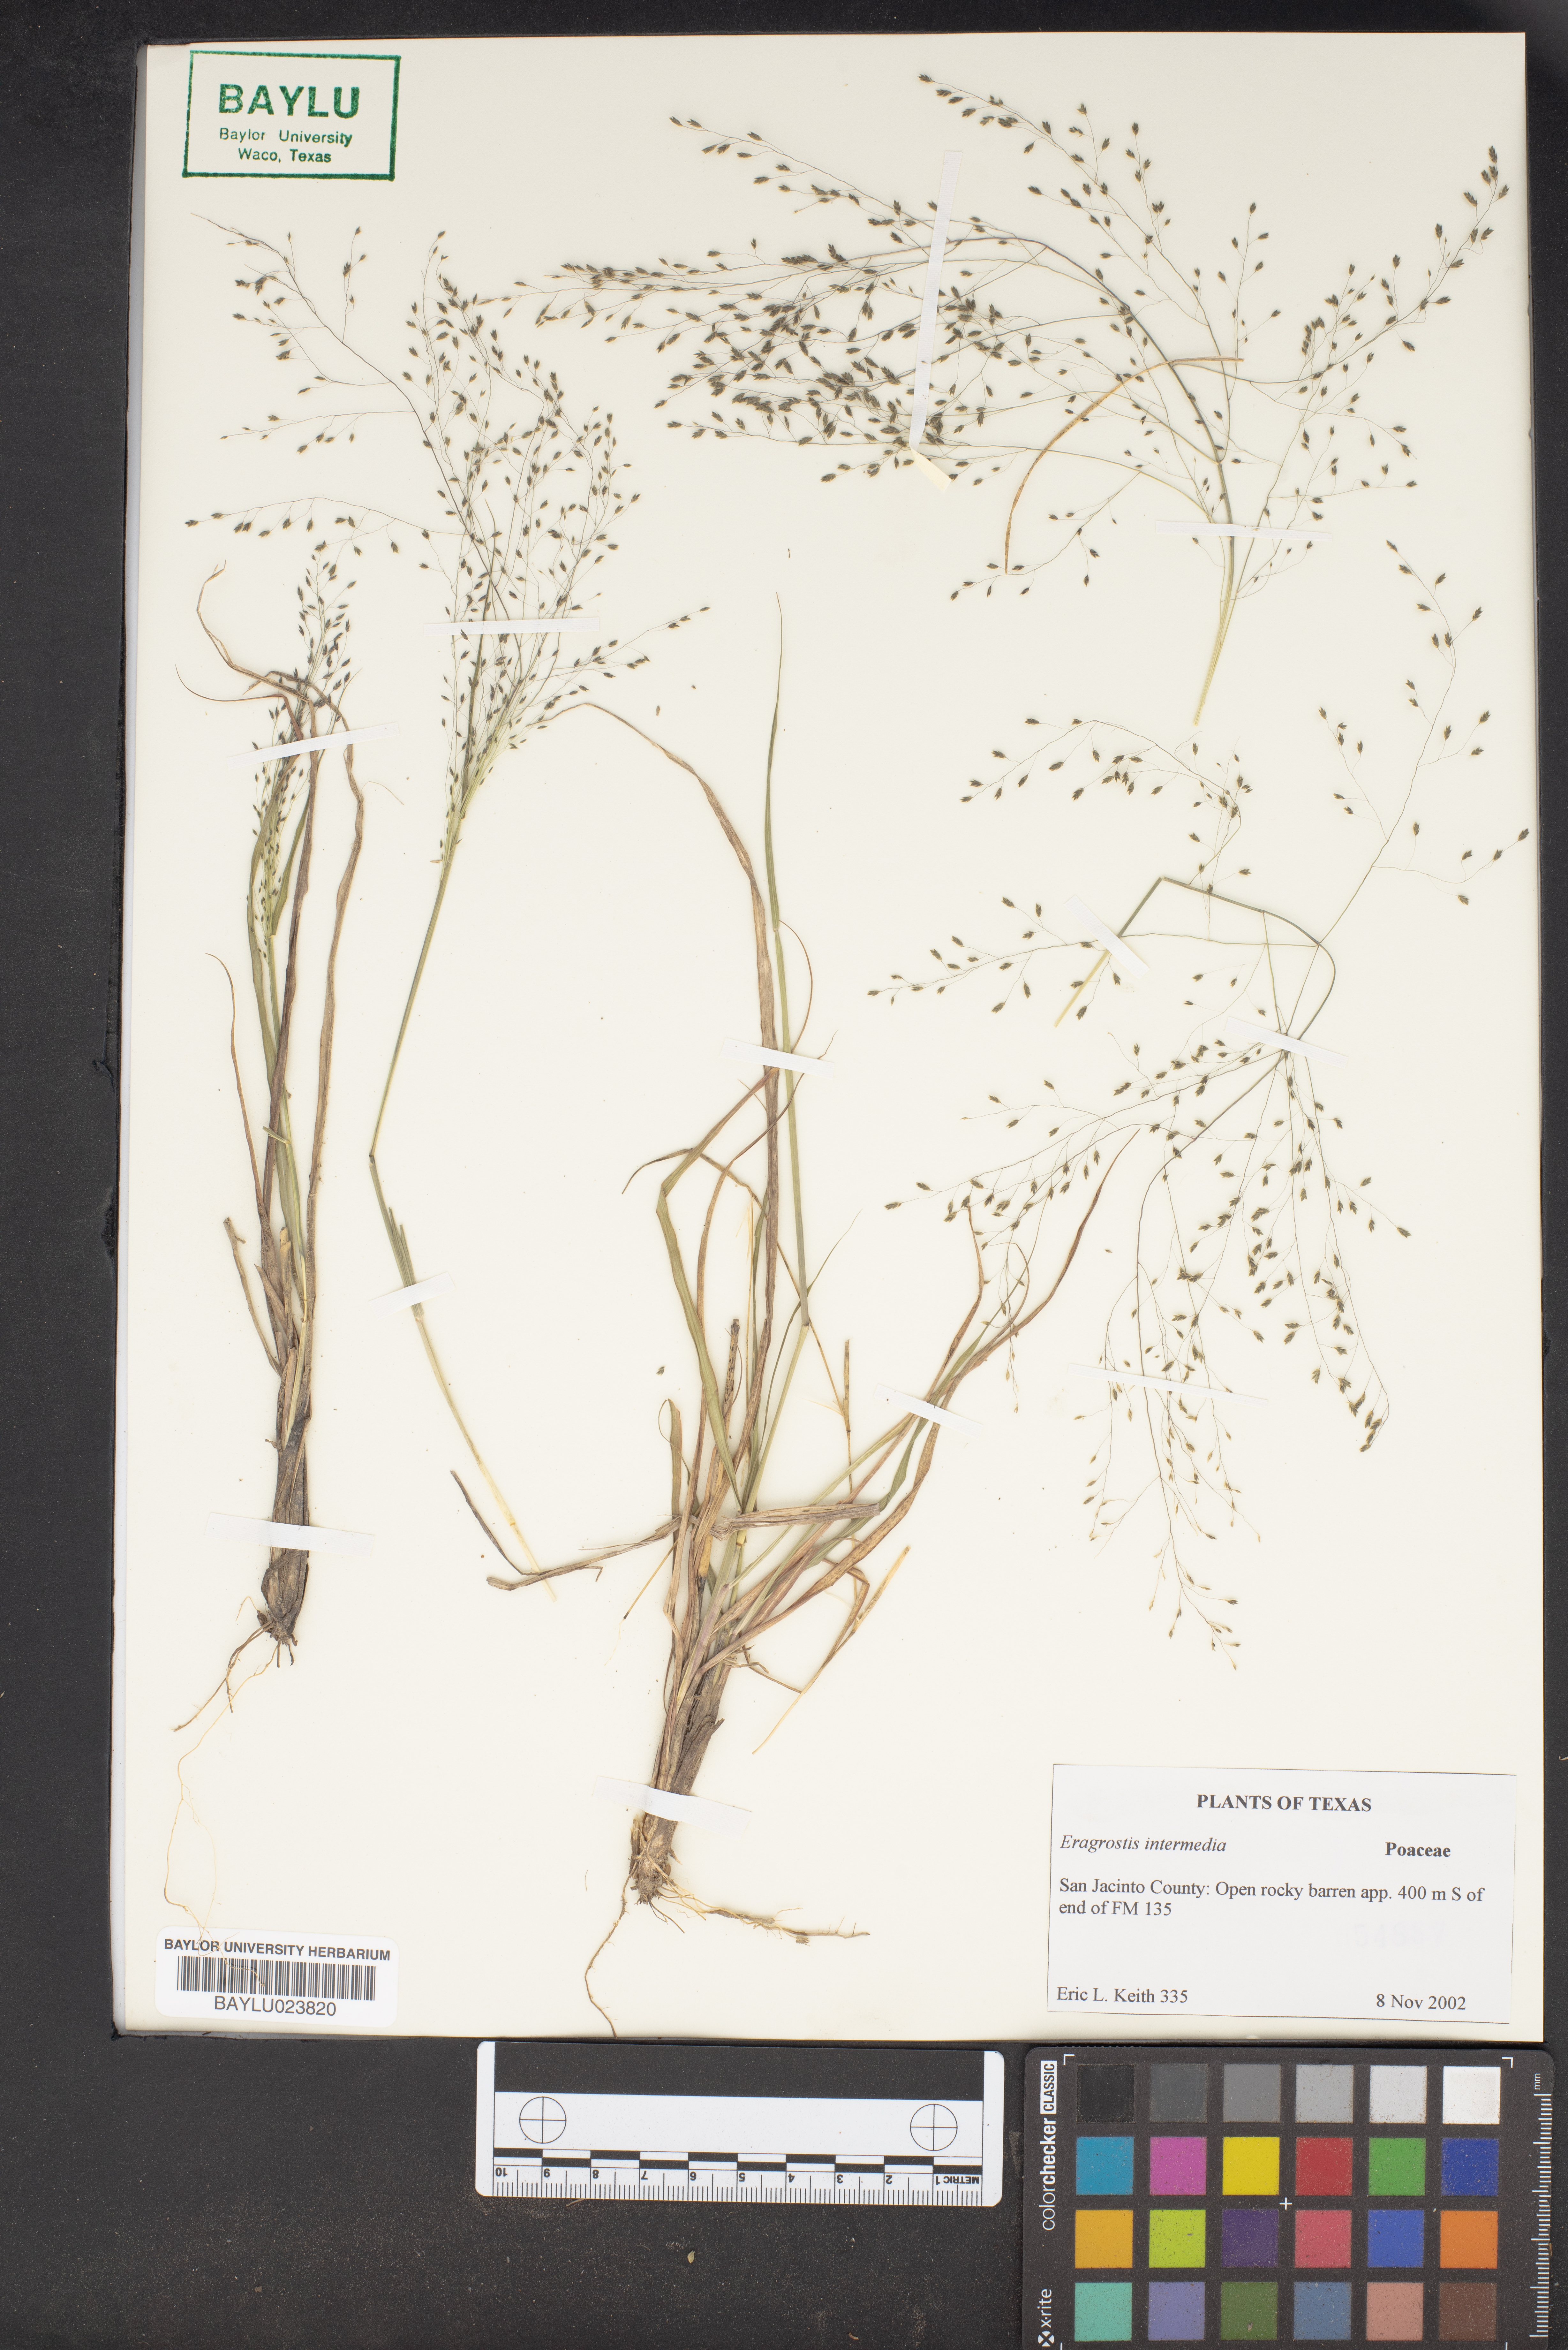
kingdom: Plantae
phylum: Tracheophyta
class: Liliopsida
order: Poales
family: Poaceae
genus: Eragrostis
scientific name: Eragrostis intermedia
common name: Plains love grass
